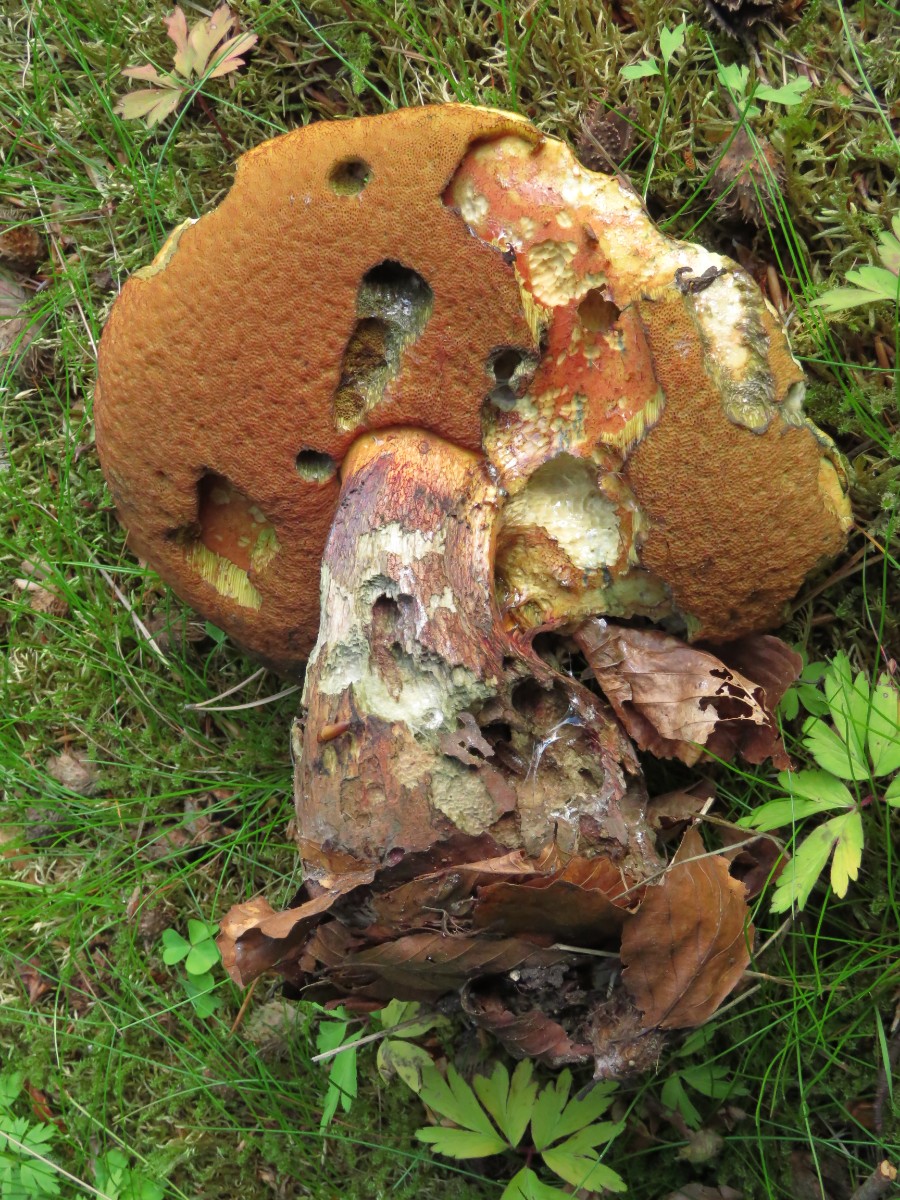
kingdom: Fungi
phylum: Basidiomycota
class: Agaricomycetes
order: Boletales
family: Boletaceae
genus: Suillellus
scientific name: Suillellus luridus
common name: netstokket indigorørhat
